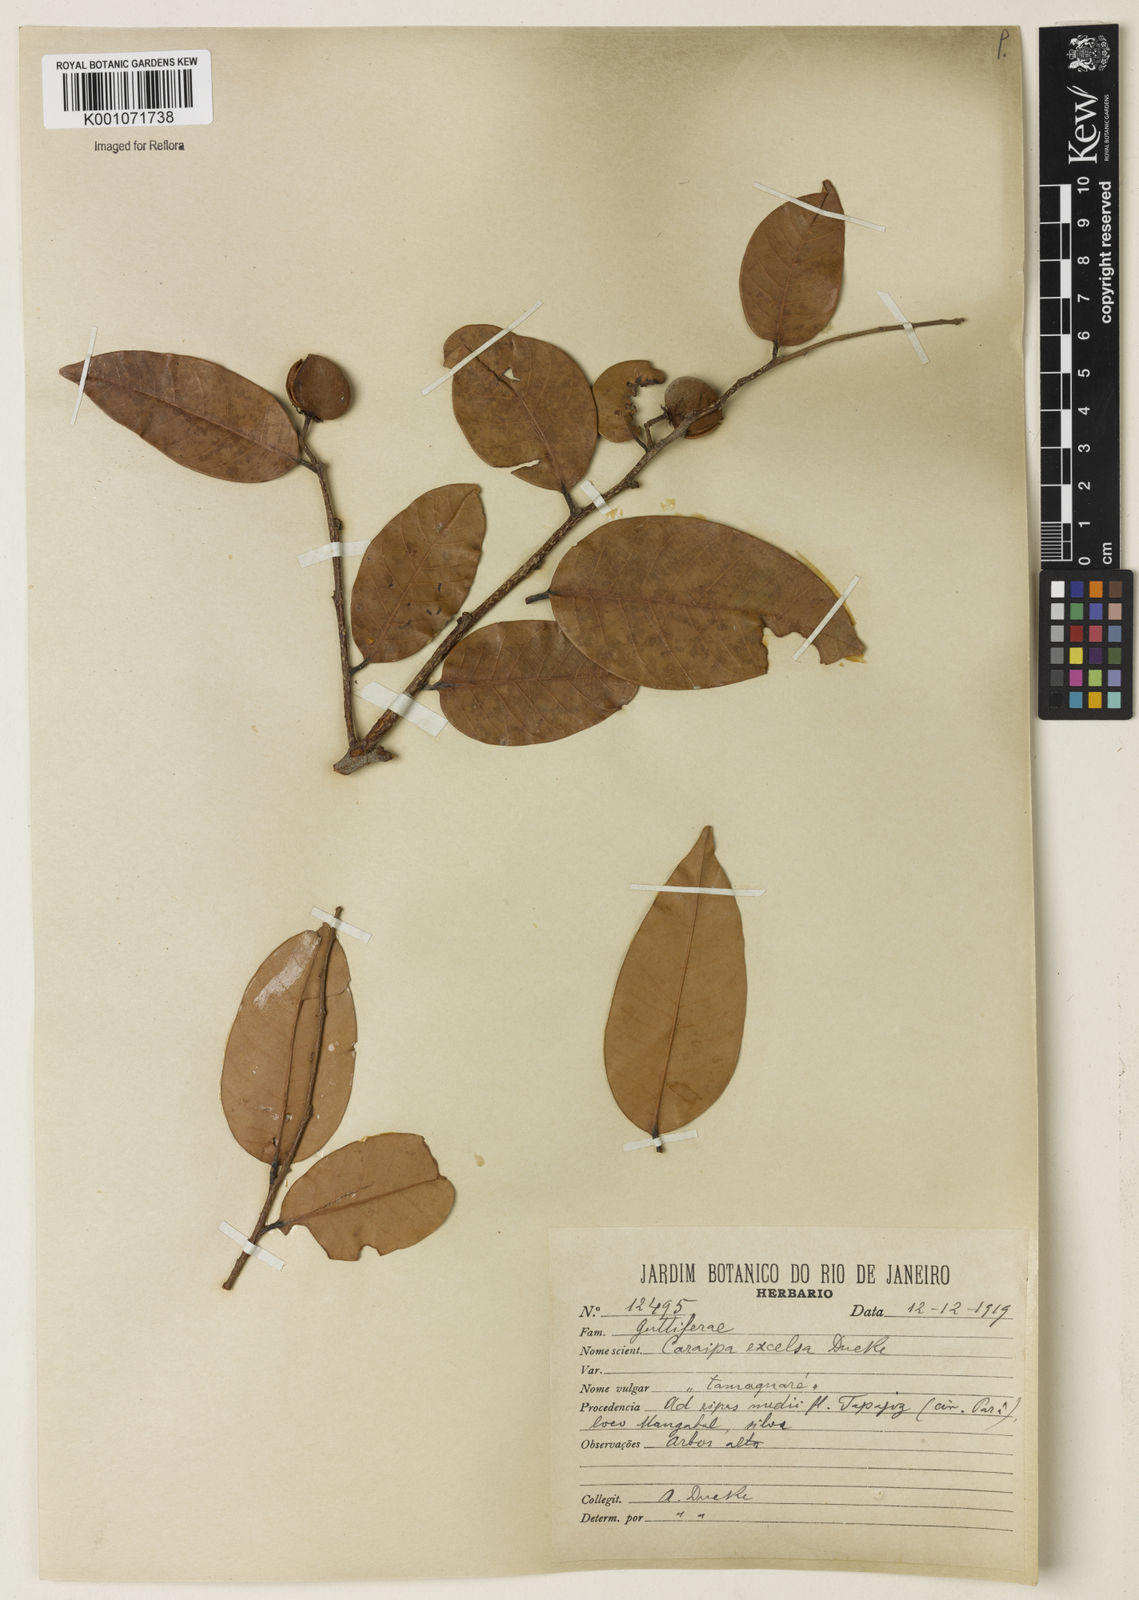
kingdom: Plantae
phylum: Tracheophyta
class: Magnoliopsida
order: Malpighiales
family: Calophyllaceae
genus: Caraipa
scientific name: Caraipa densifolia
